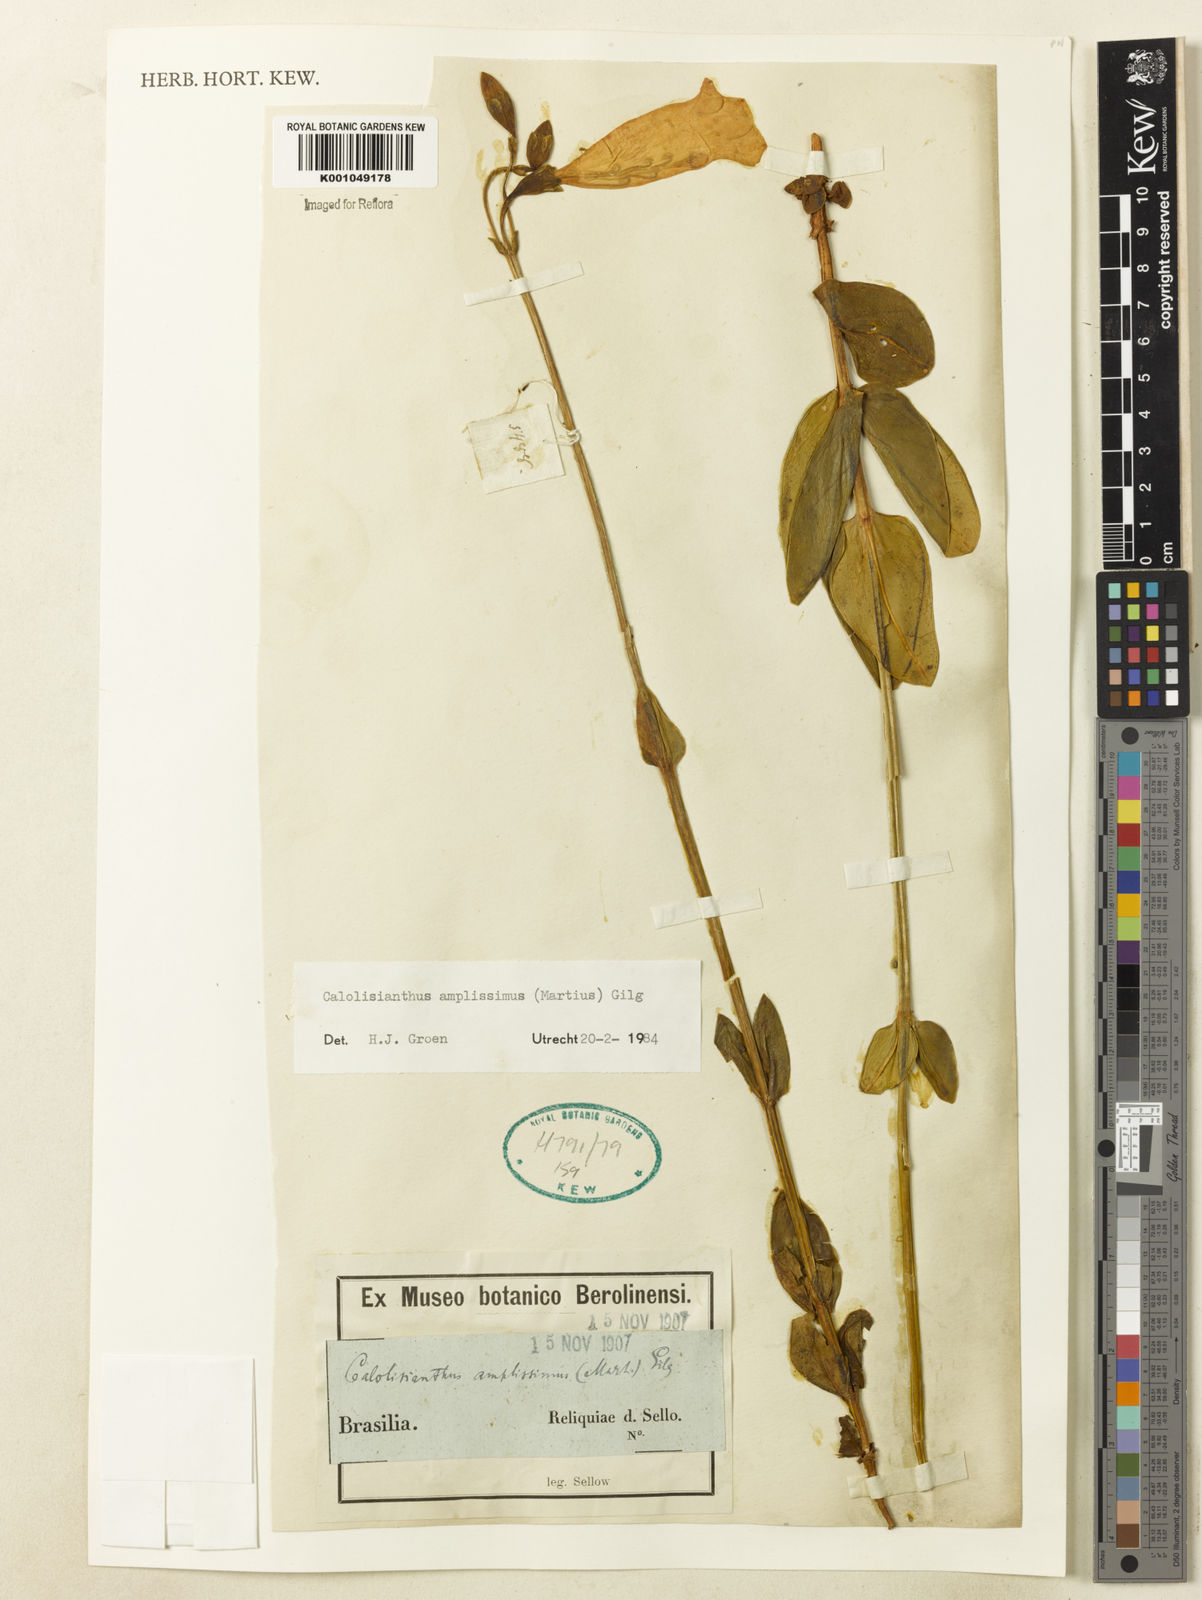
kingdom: Plantae
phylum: Tracheophyta
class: Magnoliopsida
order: Gentianales
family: Gentianaceae
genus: Calolisianthus
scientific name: Calolisianthus amplissimus
